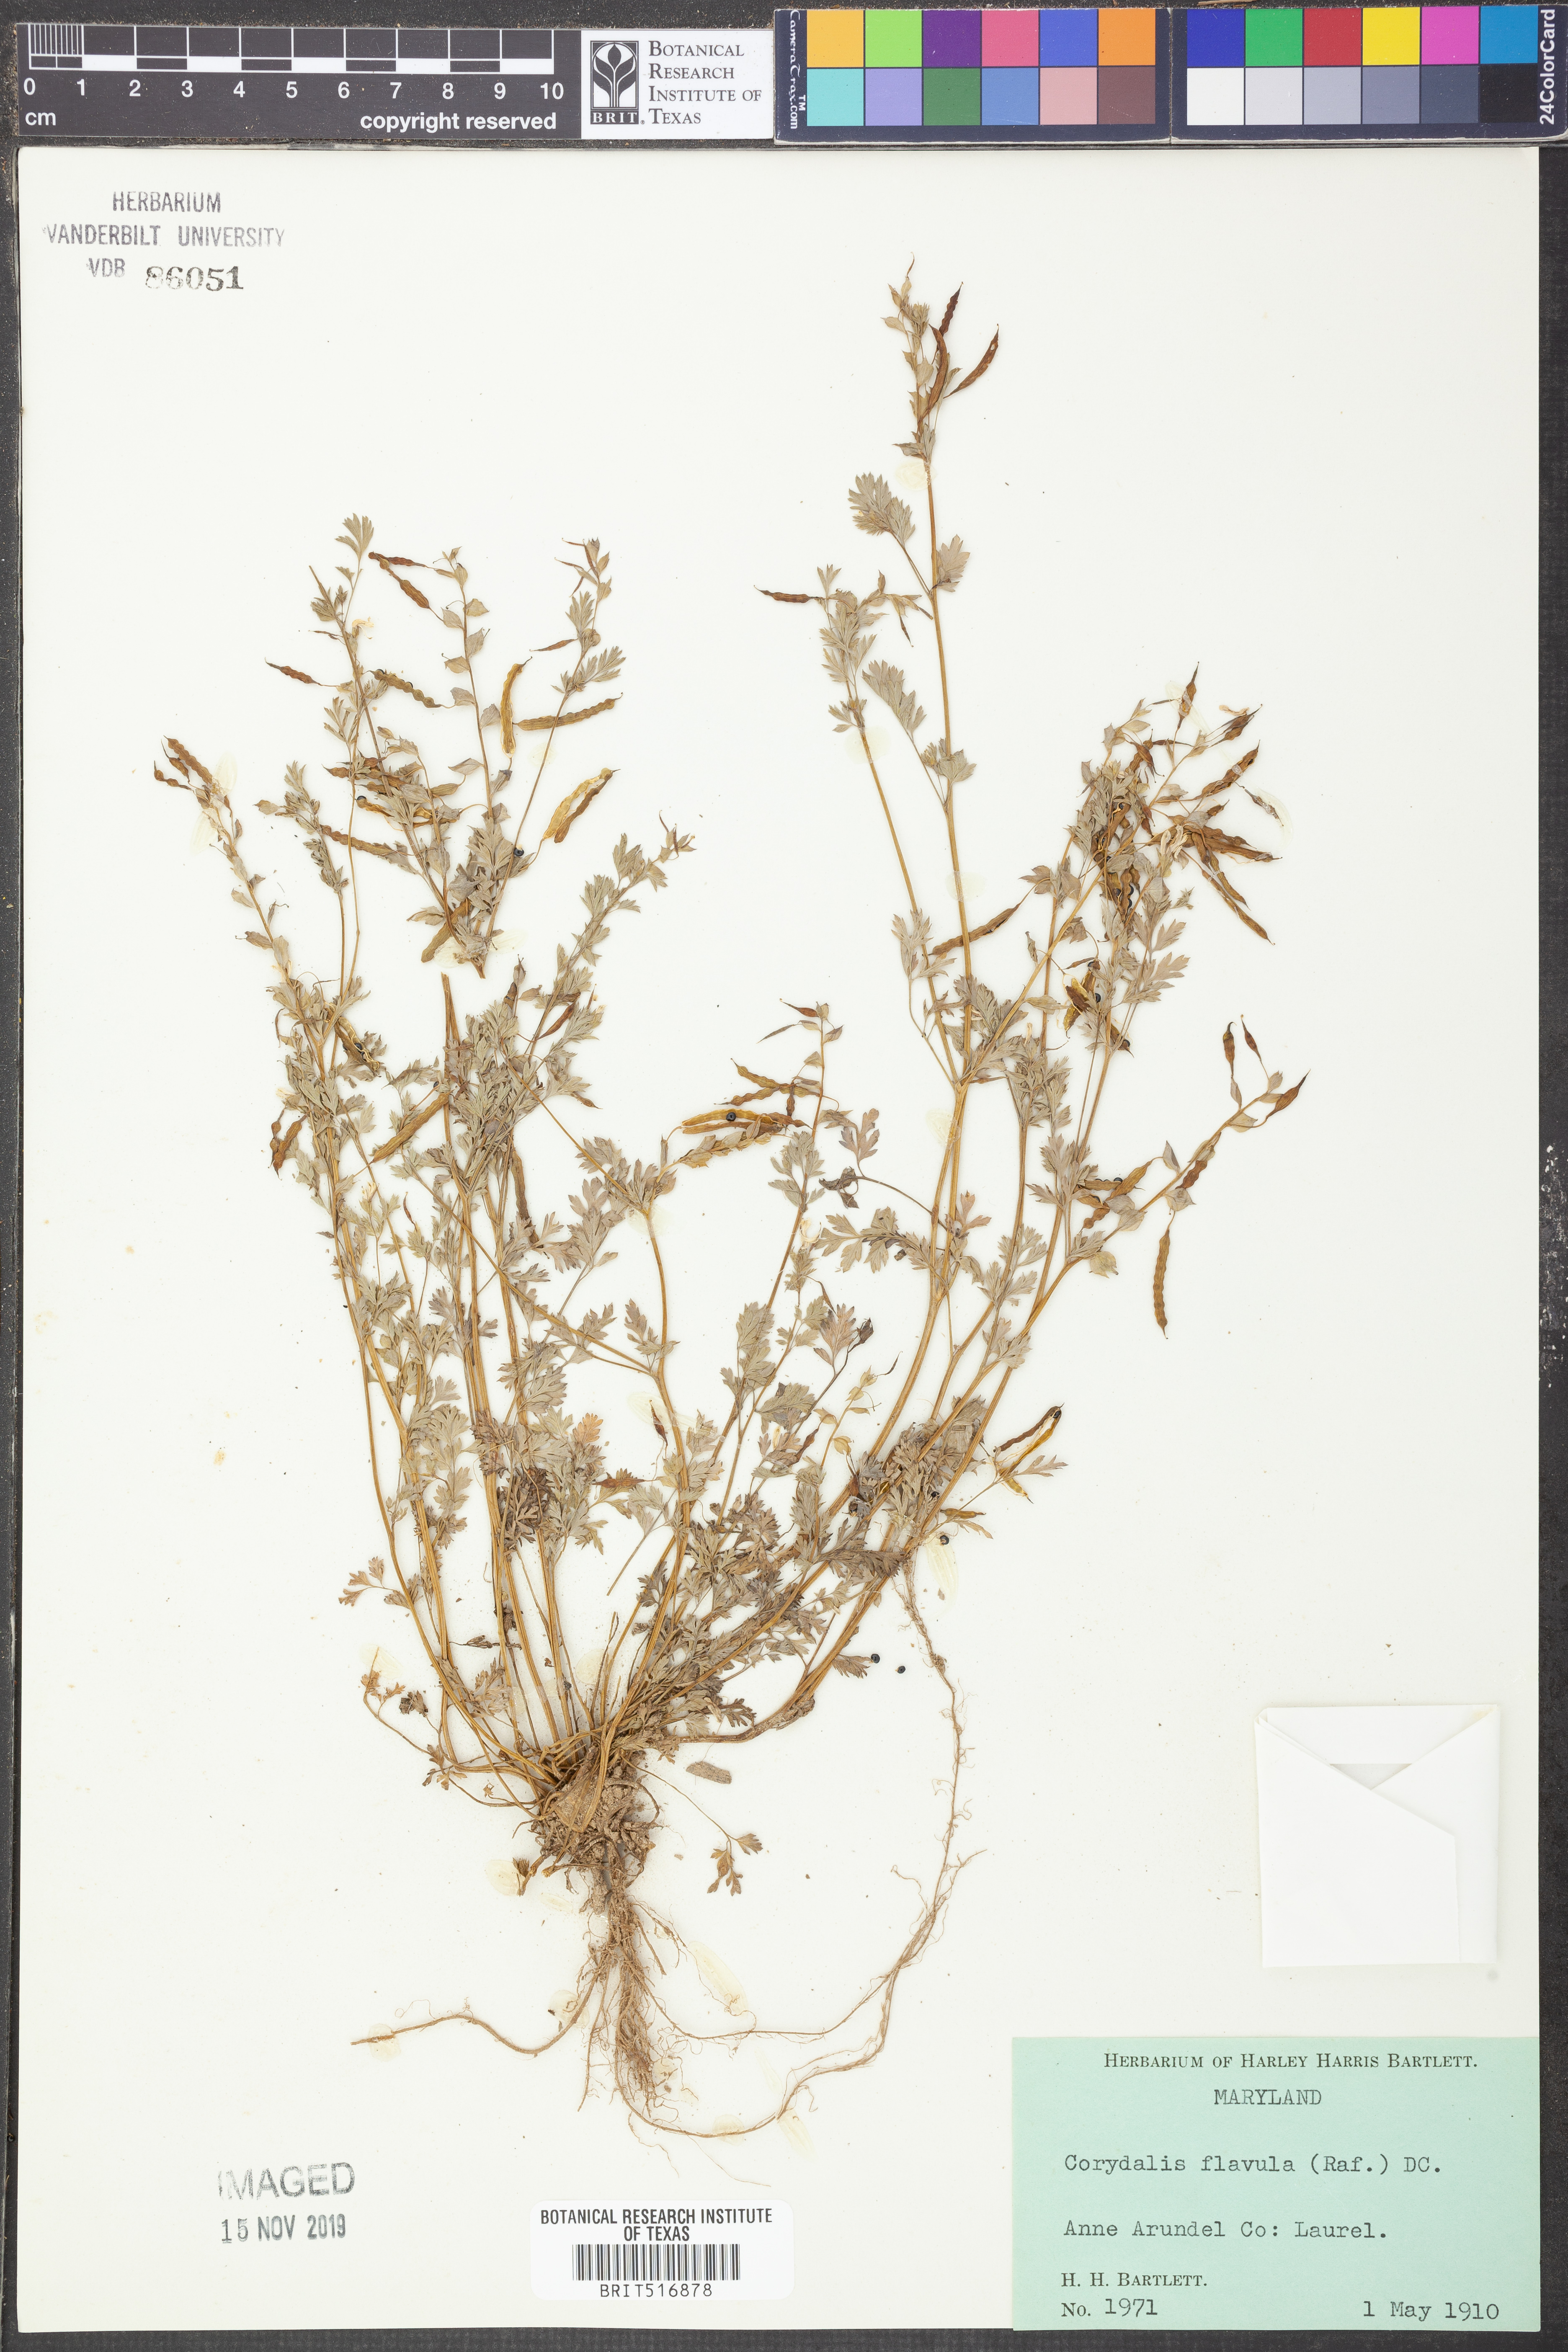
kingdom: Plantae
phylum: Tracheophyta
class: Magnoliopsida
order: Ranunculales
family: Papaveraceae
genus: Corydalis
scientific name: Corydalis flavula
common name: Yellow corydalis
